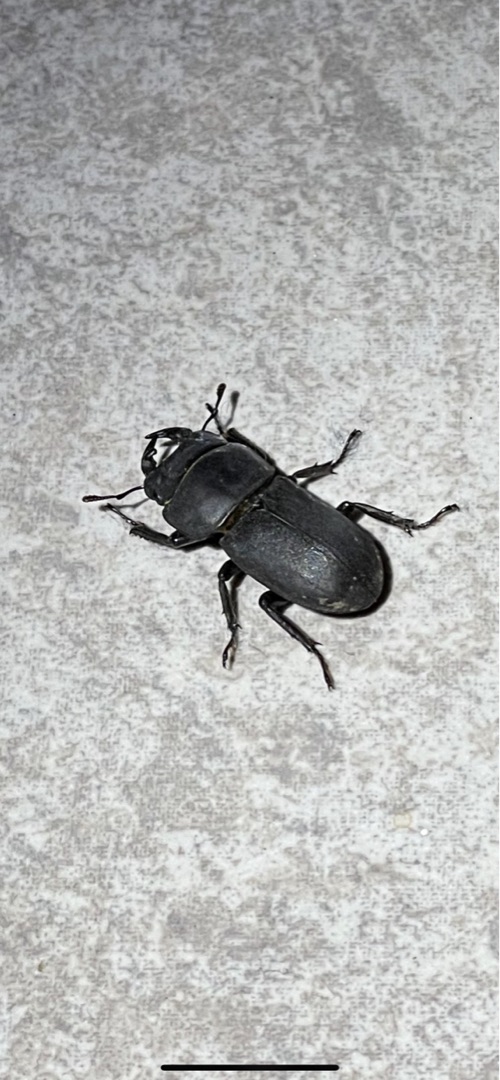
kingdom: Animalia
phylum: Arthropoda
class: Insecta
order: Coleoptera
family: Lucanidae
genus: Dorcus
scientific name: Dorcus parallelipipedus
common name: Bøghjort
